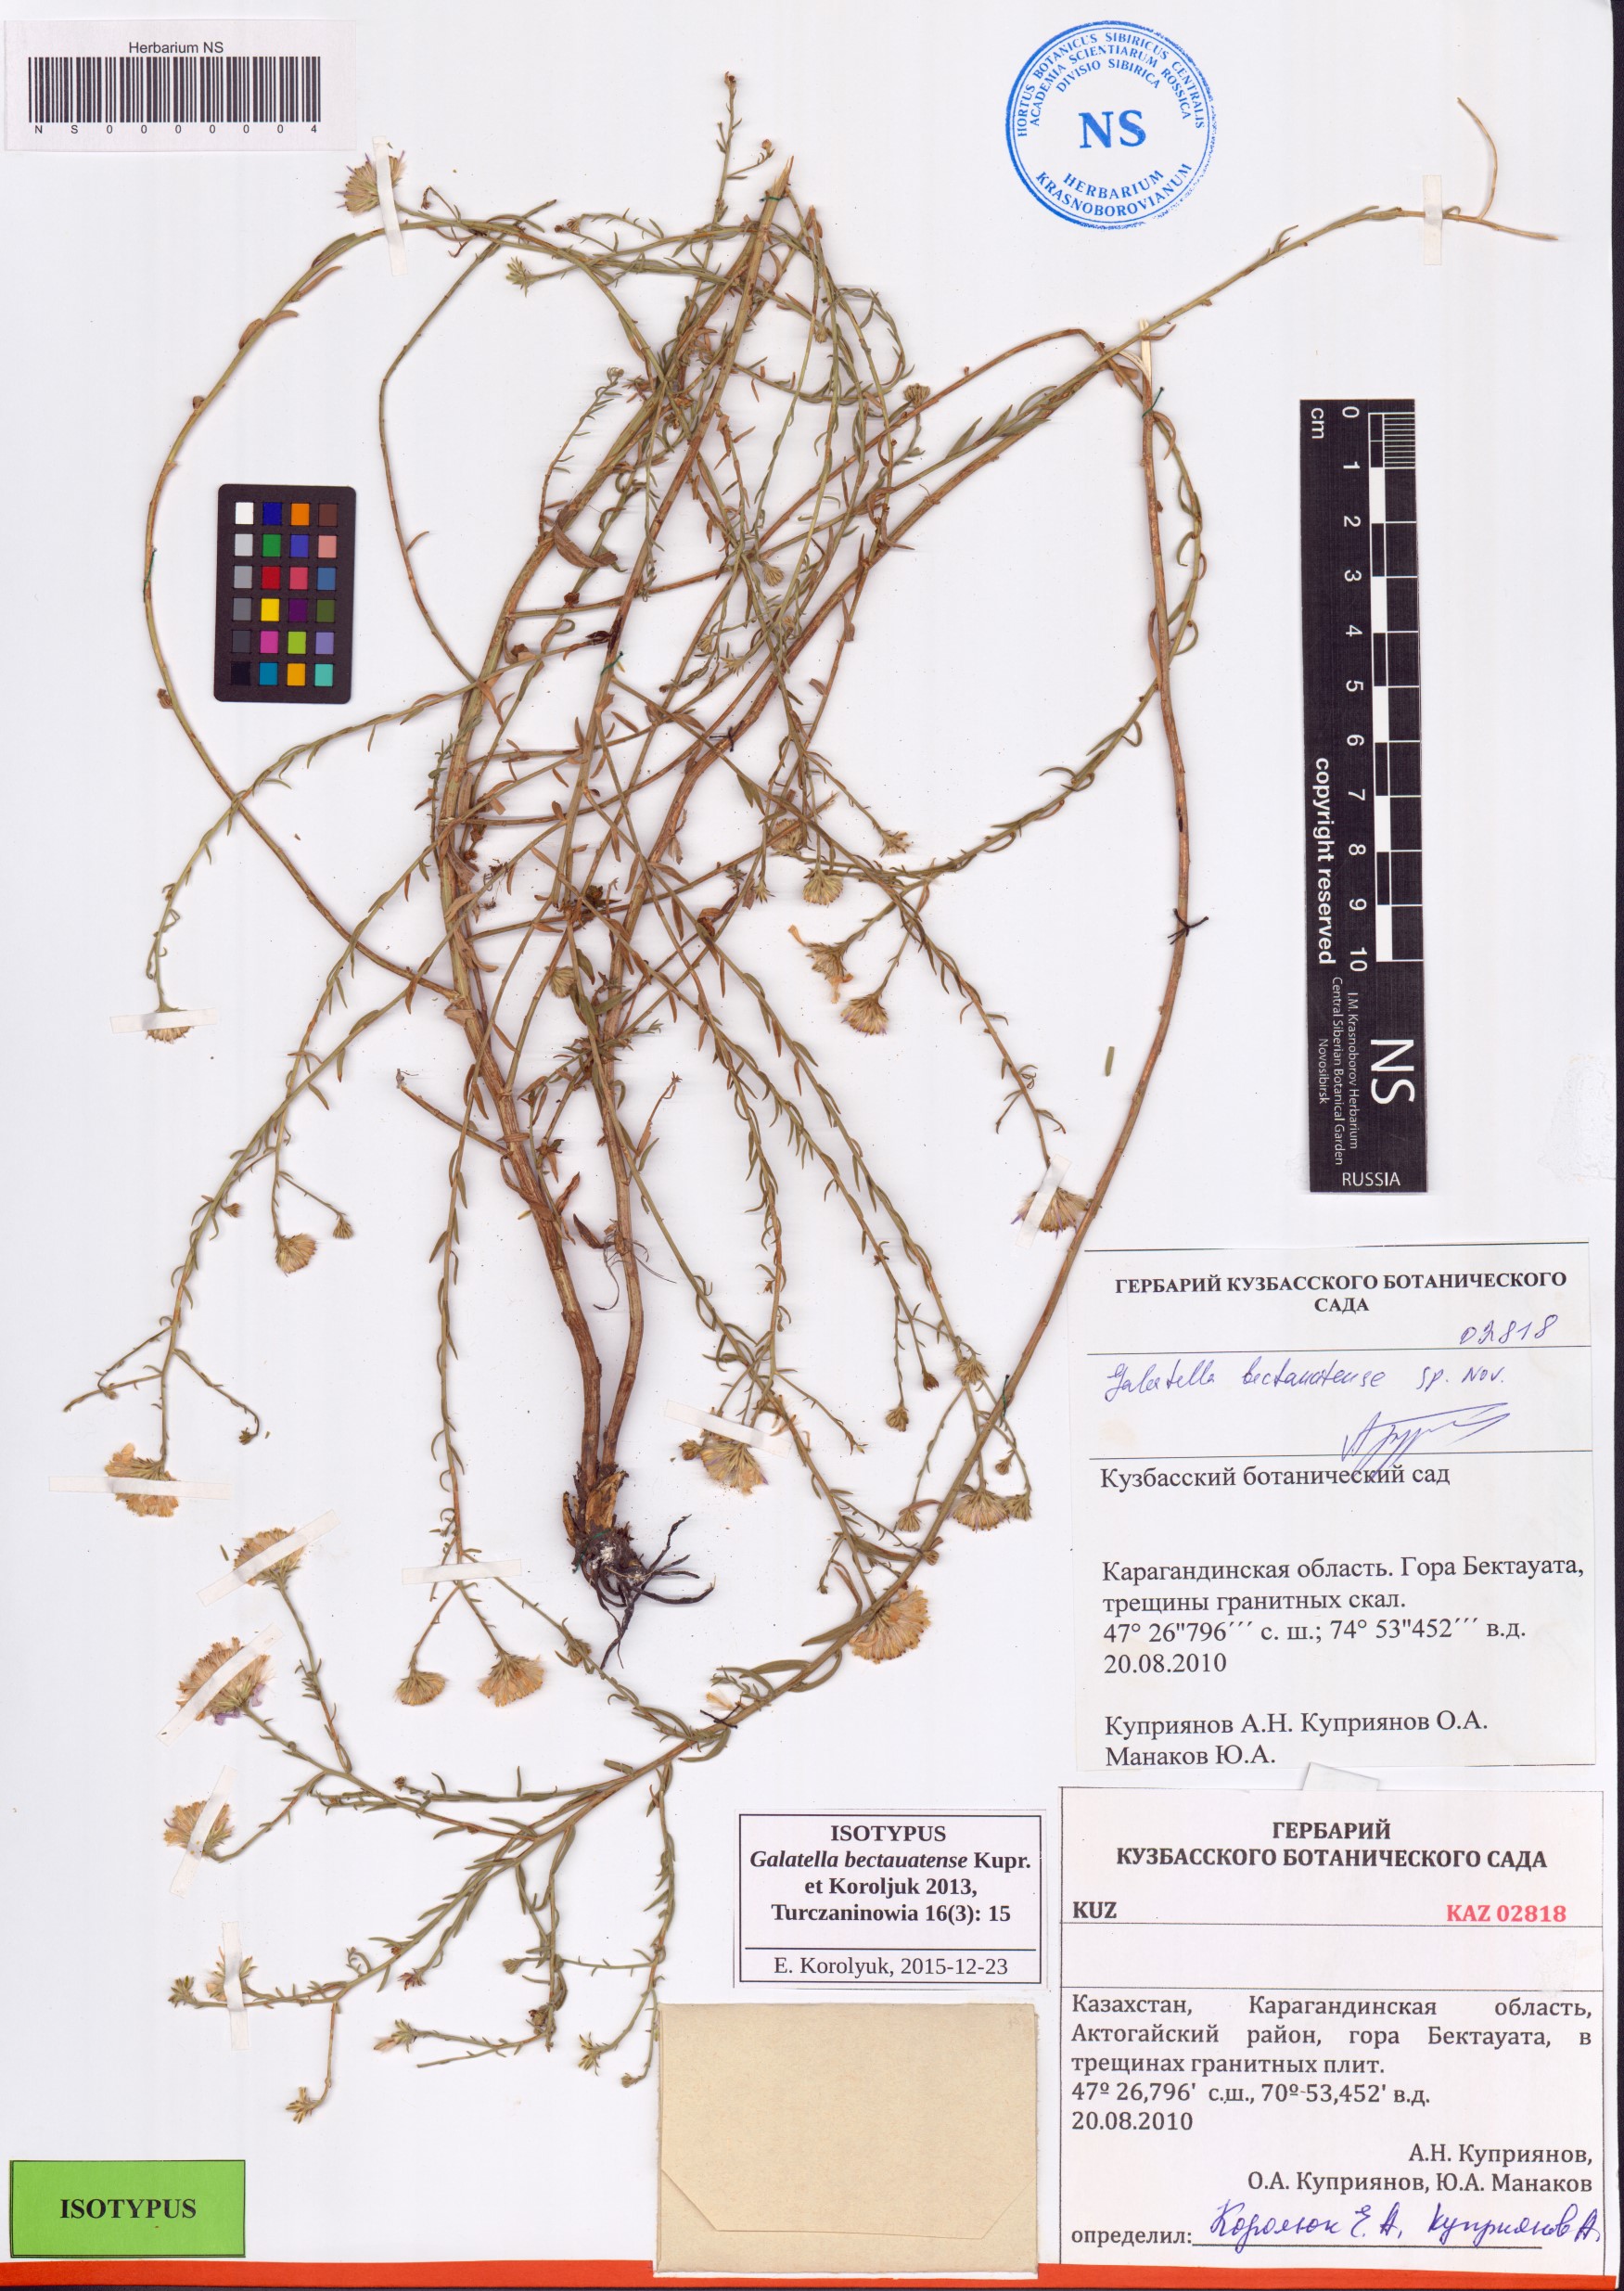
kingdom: Plantae
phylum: Tracheophyta
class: Magnoliopsida
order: Asterales
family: Asteraceae
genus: Galatella
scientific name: Galatella bectauatensis
